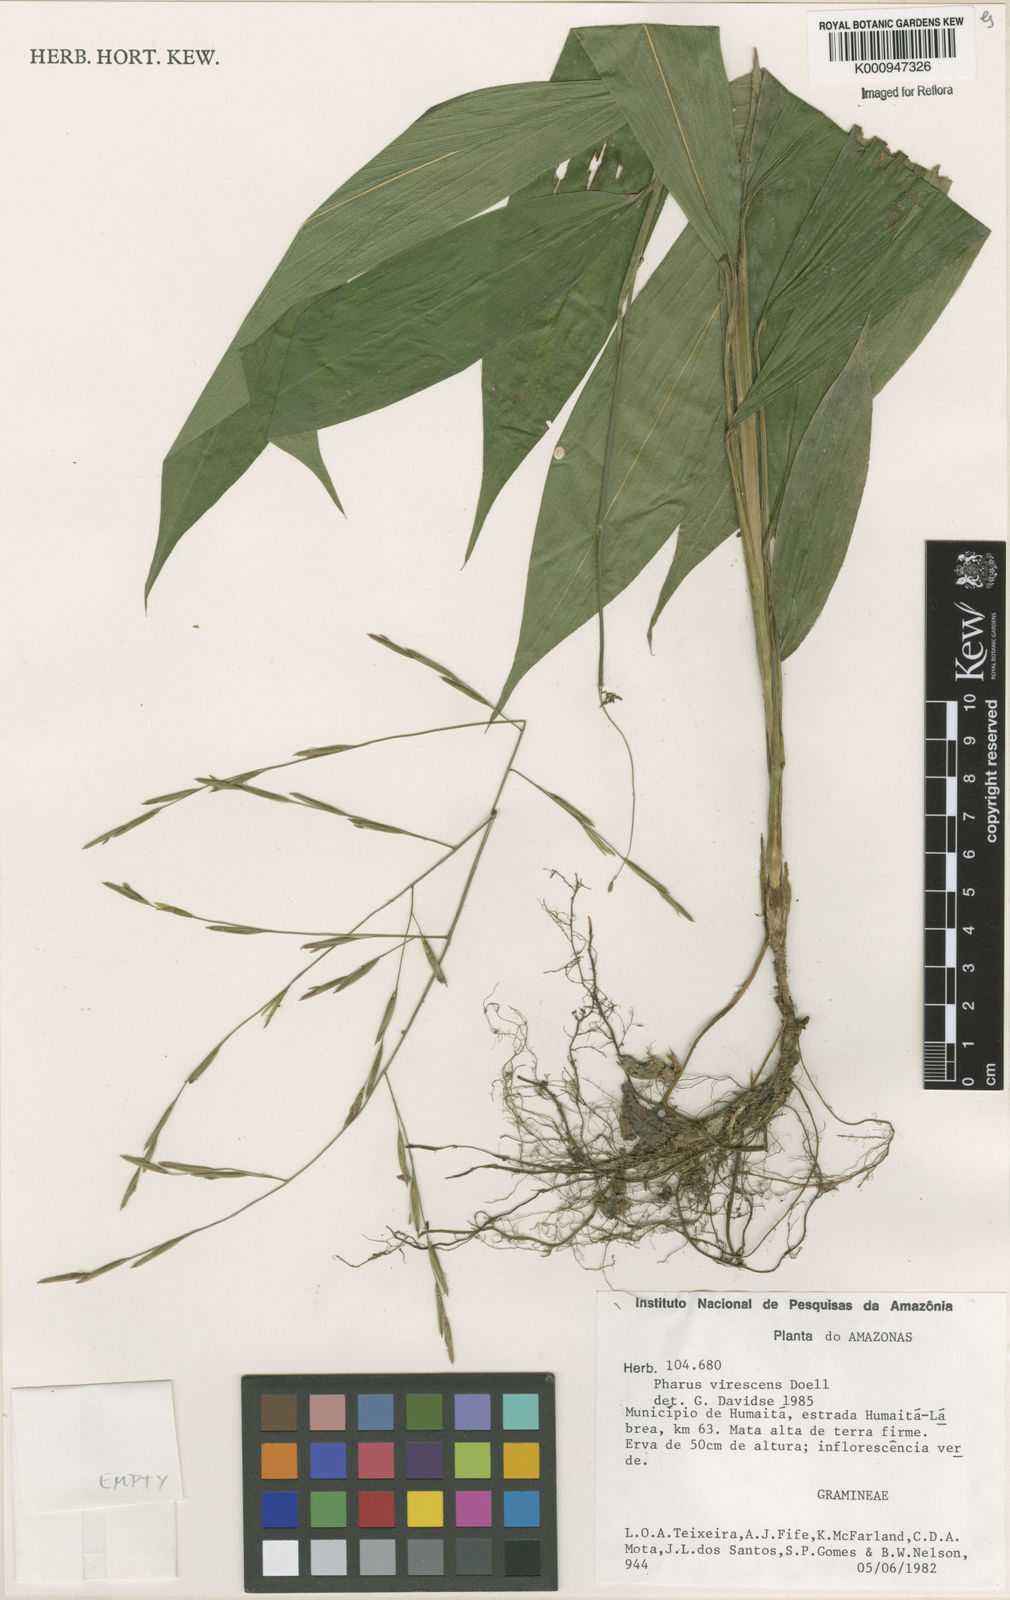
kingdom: Plantae
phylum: Tracheophyta
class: Liliopsida
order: Poales
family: Poaceae
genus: Pharus
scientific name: Pharus
